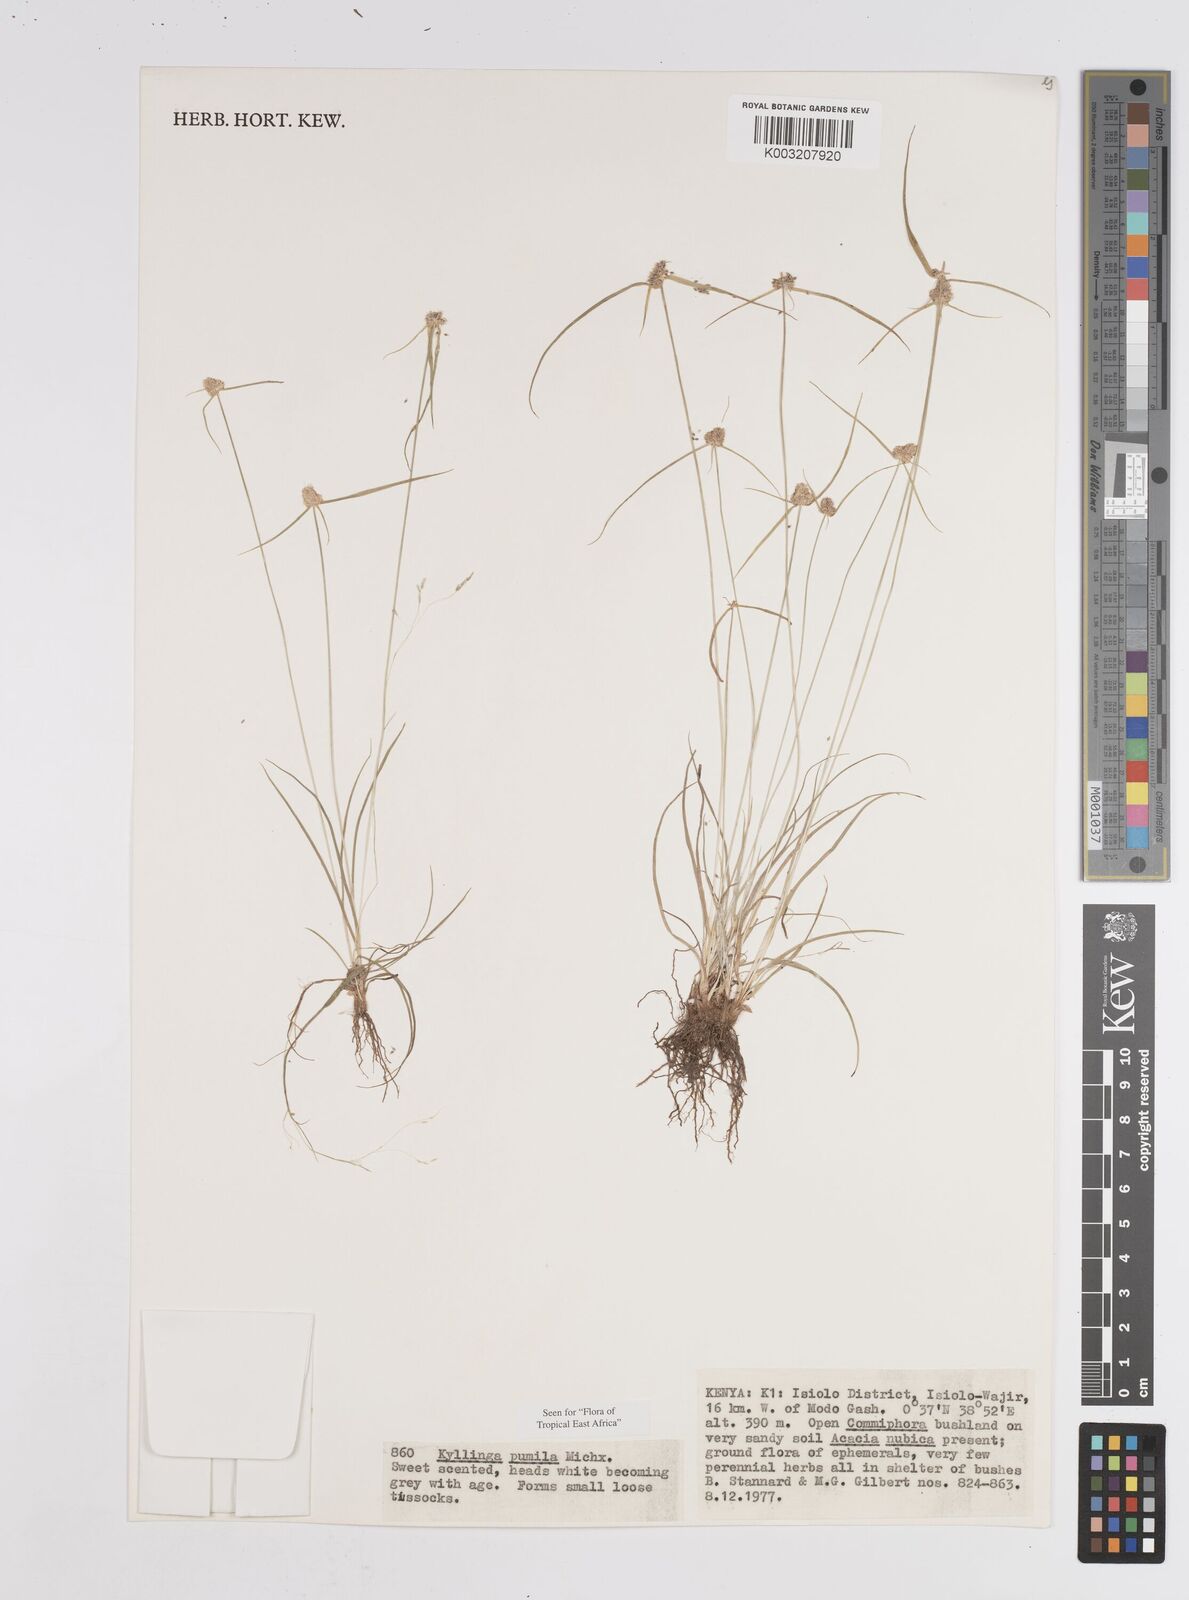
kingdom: Plantae
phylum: Tracheophyta
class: Liliopsida
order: Poales
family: Cyperaceae
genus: Cyperus
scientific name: Cyperus
